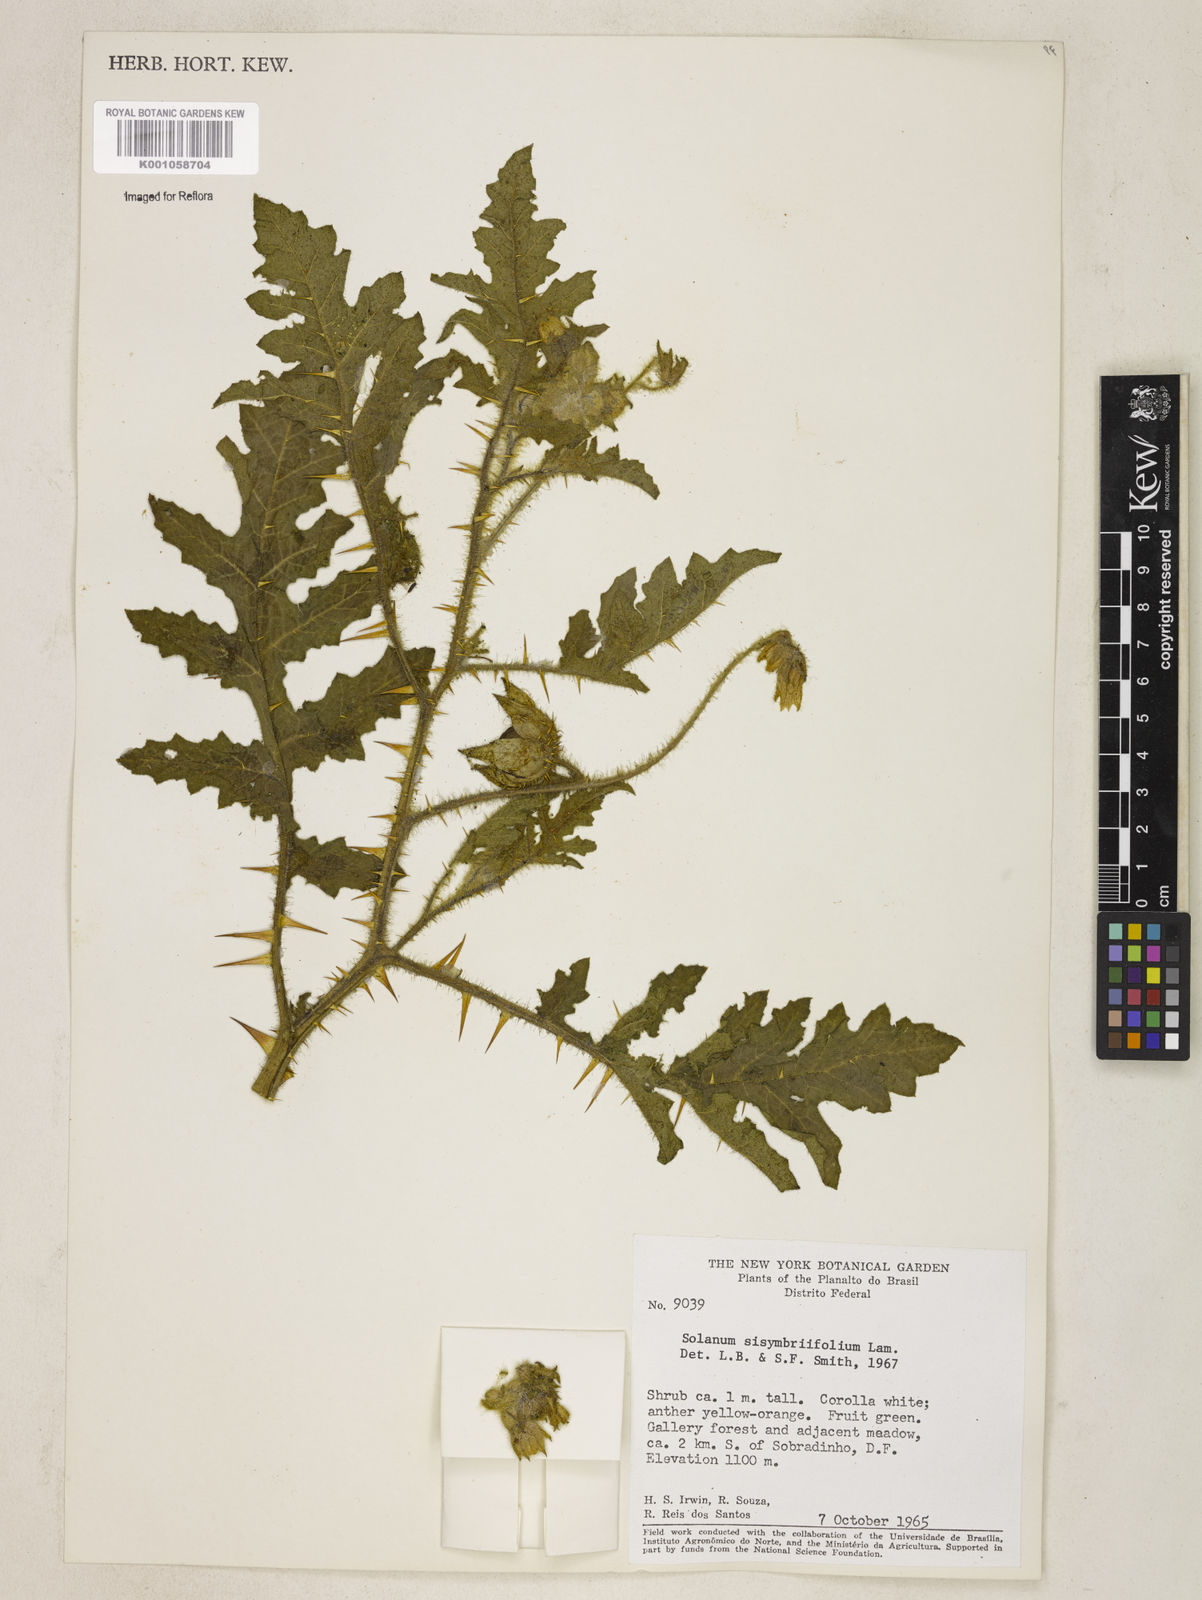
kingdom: Plantae
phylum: Tracheophyta
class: Magnoliopsida
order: Solanales
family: Solanaceae
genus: Solanum
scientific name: Solanum sisymbriifolium
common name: Red buffalo-bur
